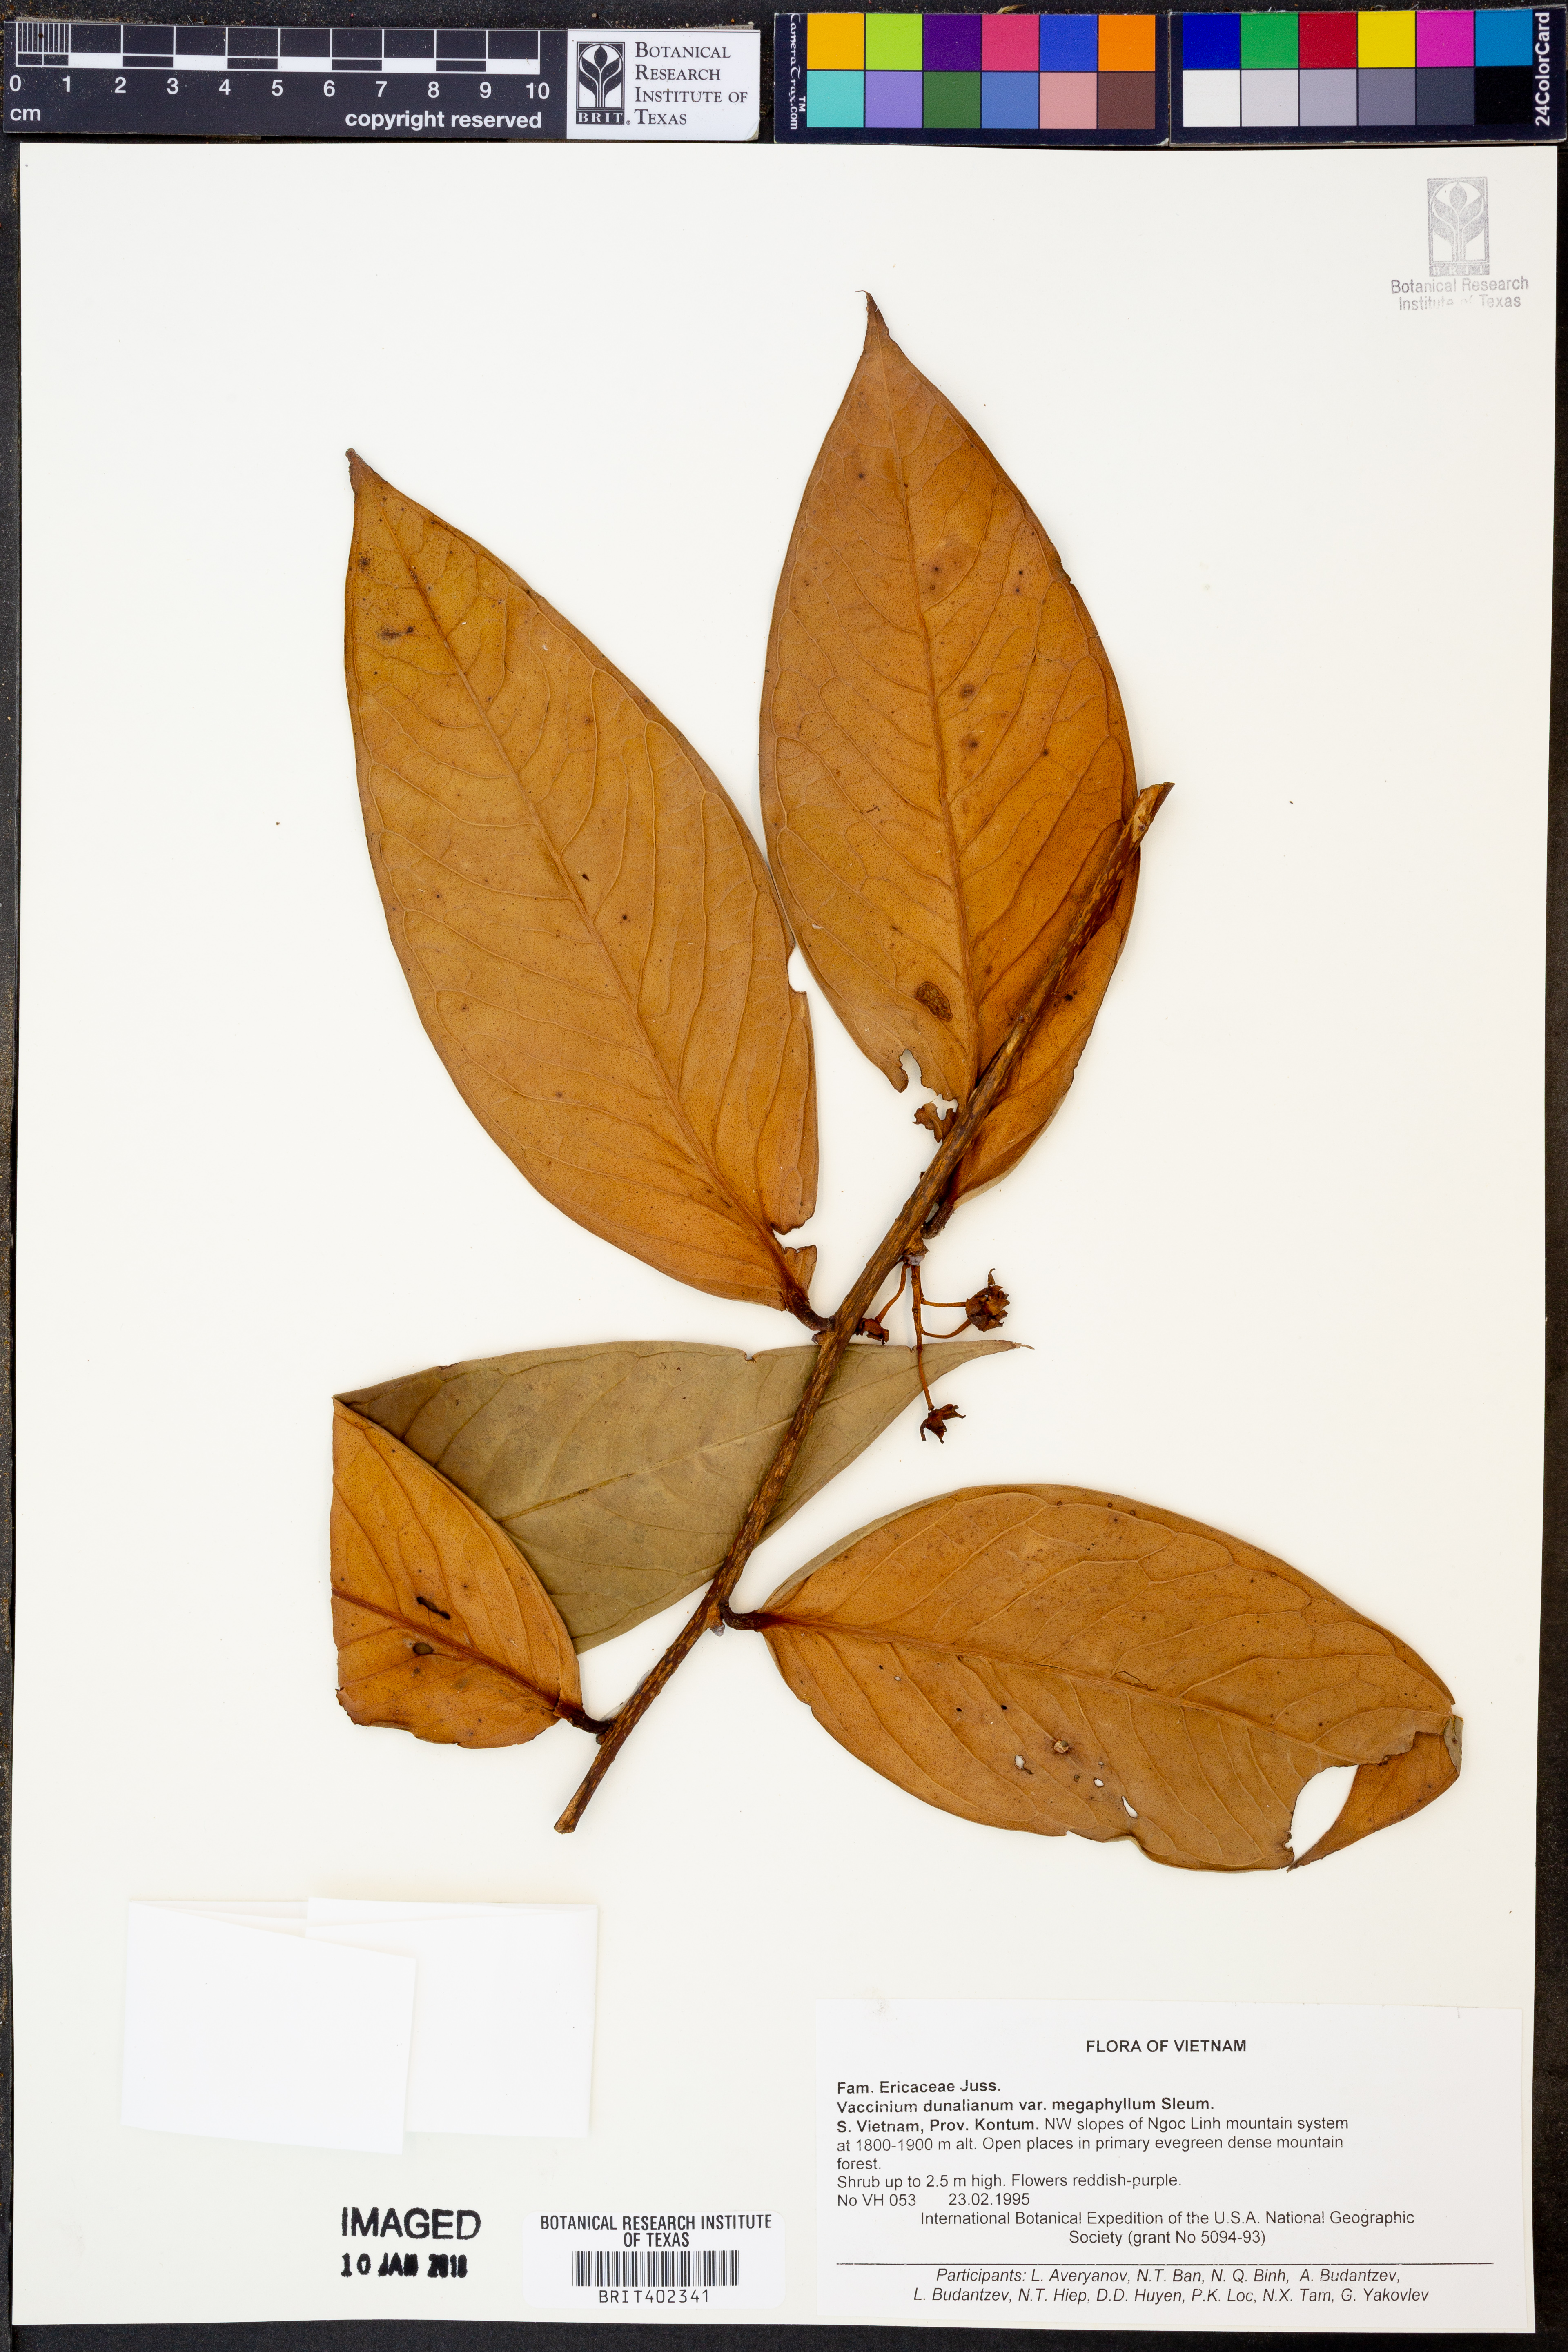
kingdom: Plantae
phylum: Tracheophyta
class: Magnoliopsida
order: Ericales
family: Ericaceae
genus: Vaccinium
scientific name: Vaccinium dunalianum
